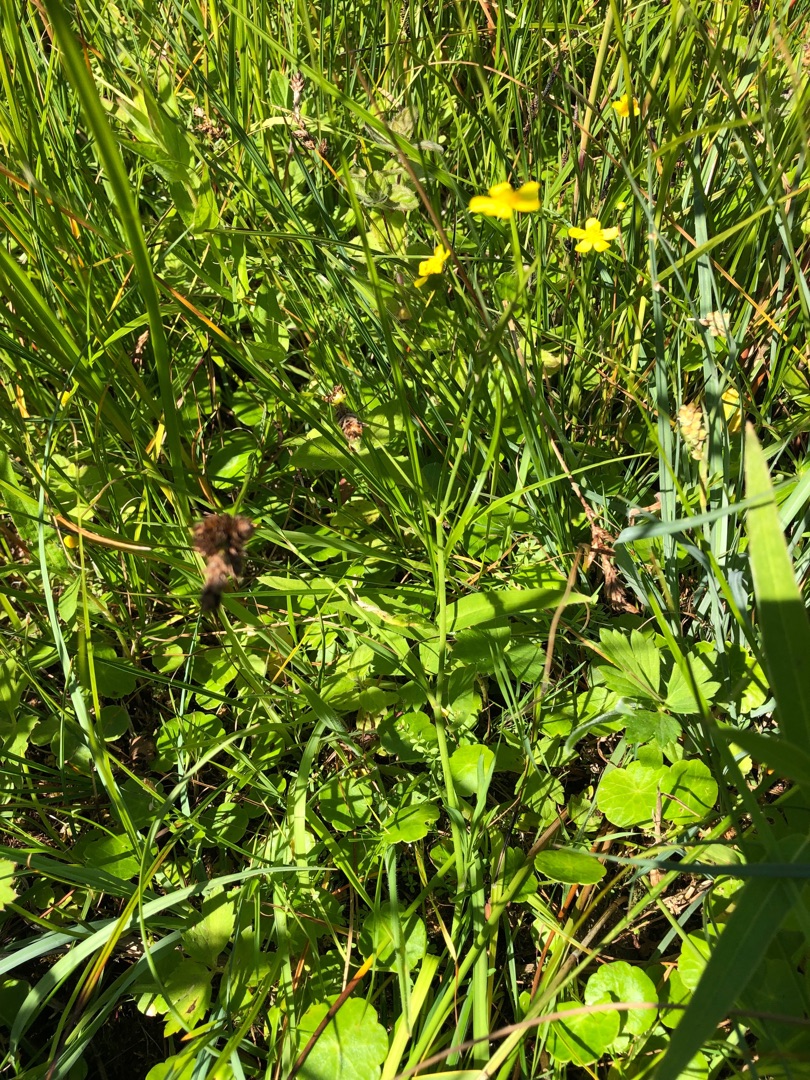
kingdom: Plantae
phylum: Tracheophyta
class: Magnoliopsida
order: Ranunculales
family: Ranunculaceae
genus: Ranunculus
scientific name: Ranunculus flammula
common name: Kær-ranunkel
